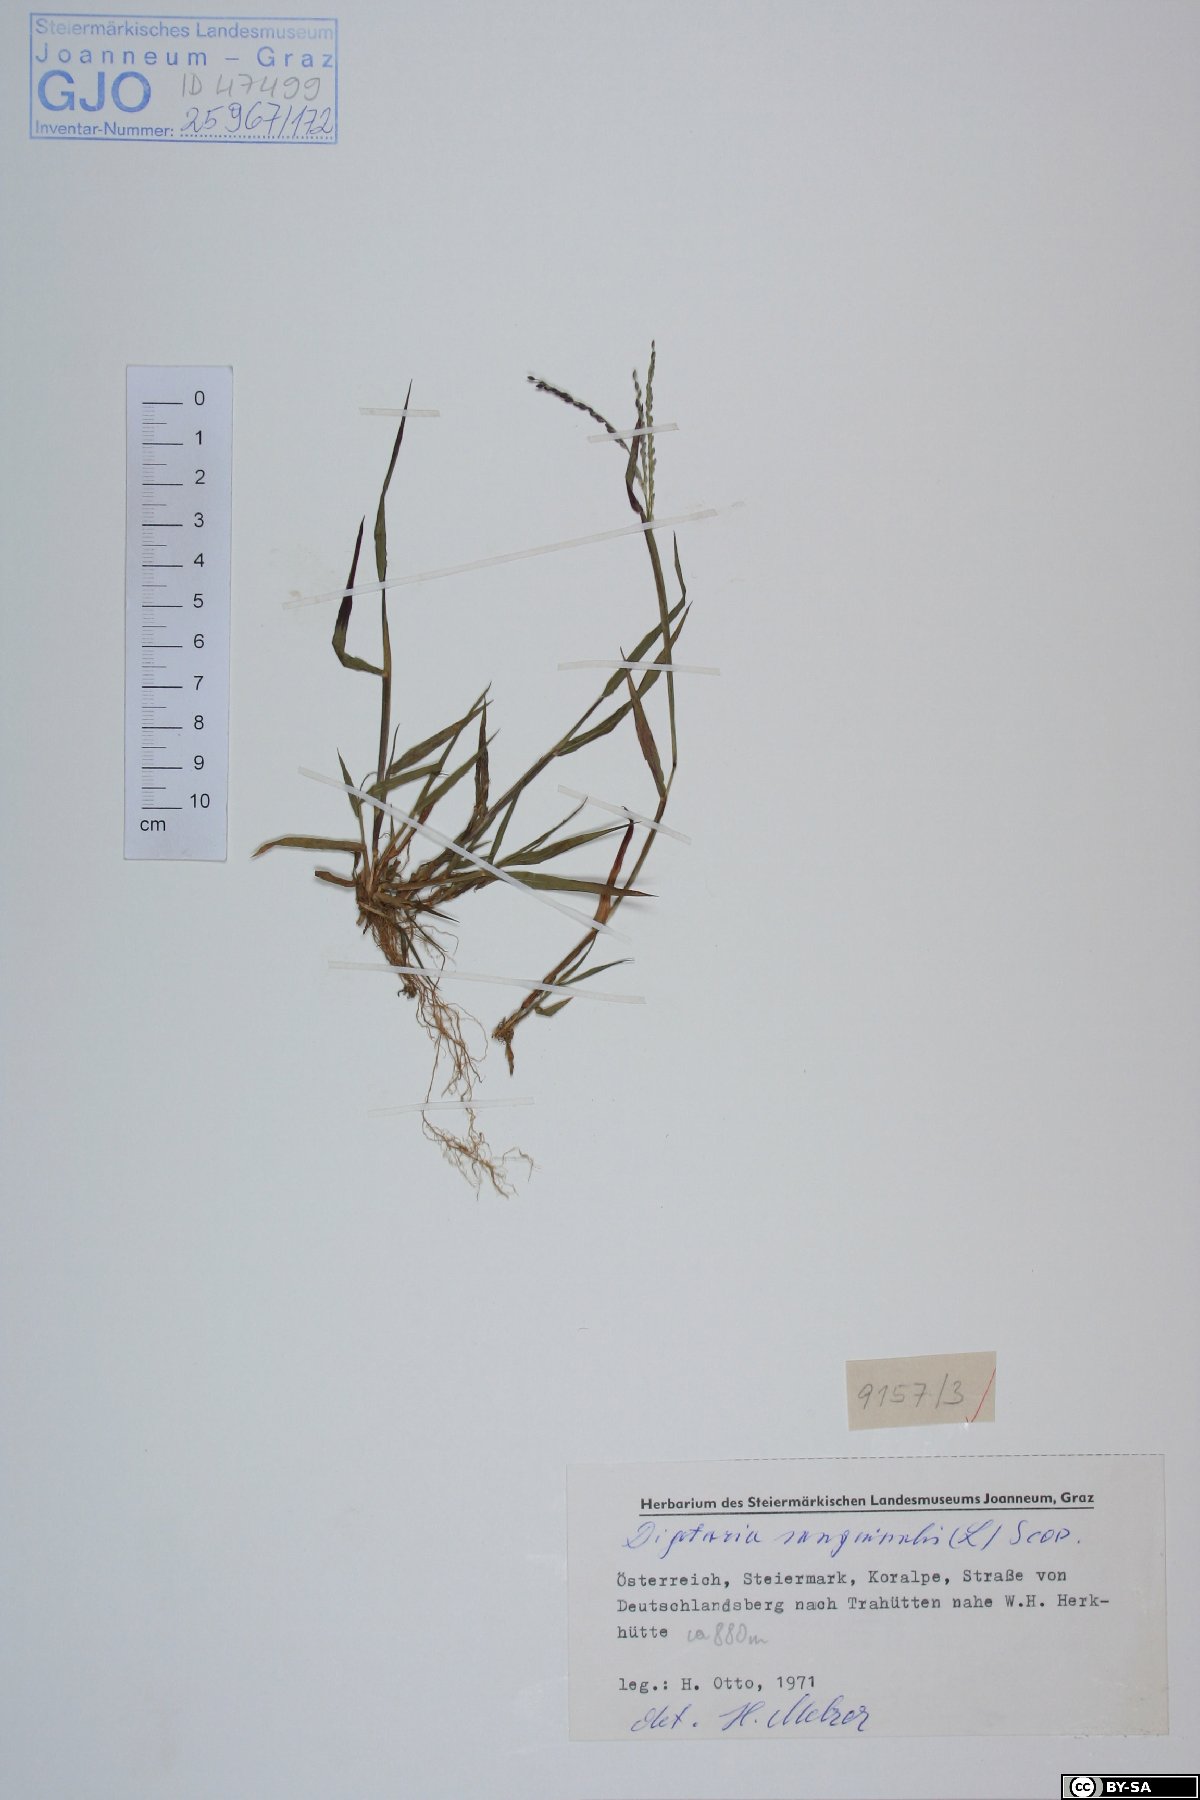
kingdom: Plantae
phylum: Tracheophyta
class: Liliopsida
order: Poales
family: Poaceae
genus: Digitaria
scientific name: Digitaria sanguinalis
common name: Hairy crabgrass
